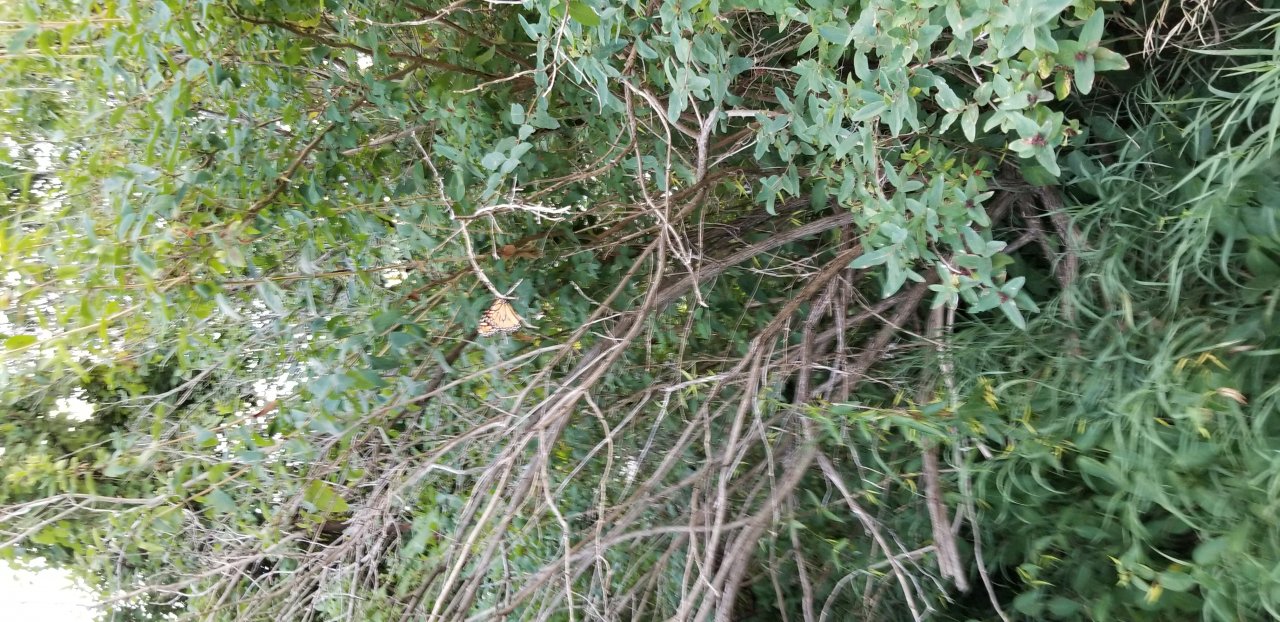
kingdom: Animalia
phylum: Arthropoda
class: Insecta
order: Lepidoptera
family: Nymphalidae
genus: Danaus
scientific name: Danaus plexippus
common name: Monarch
